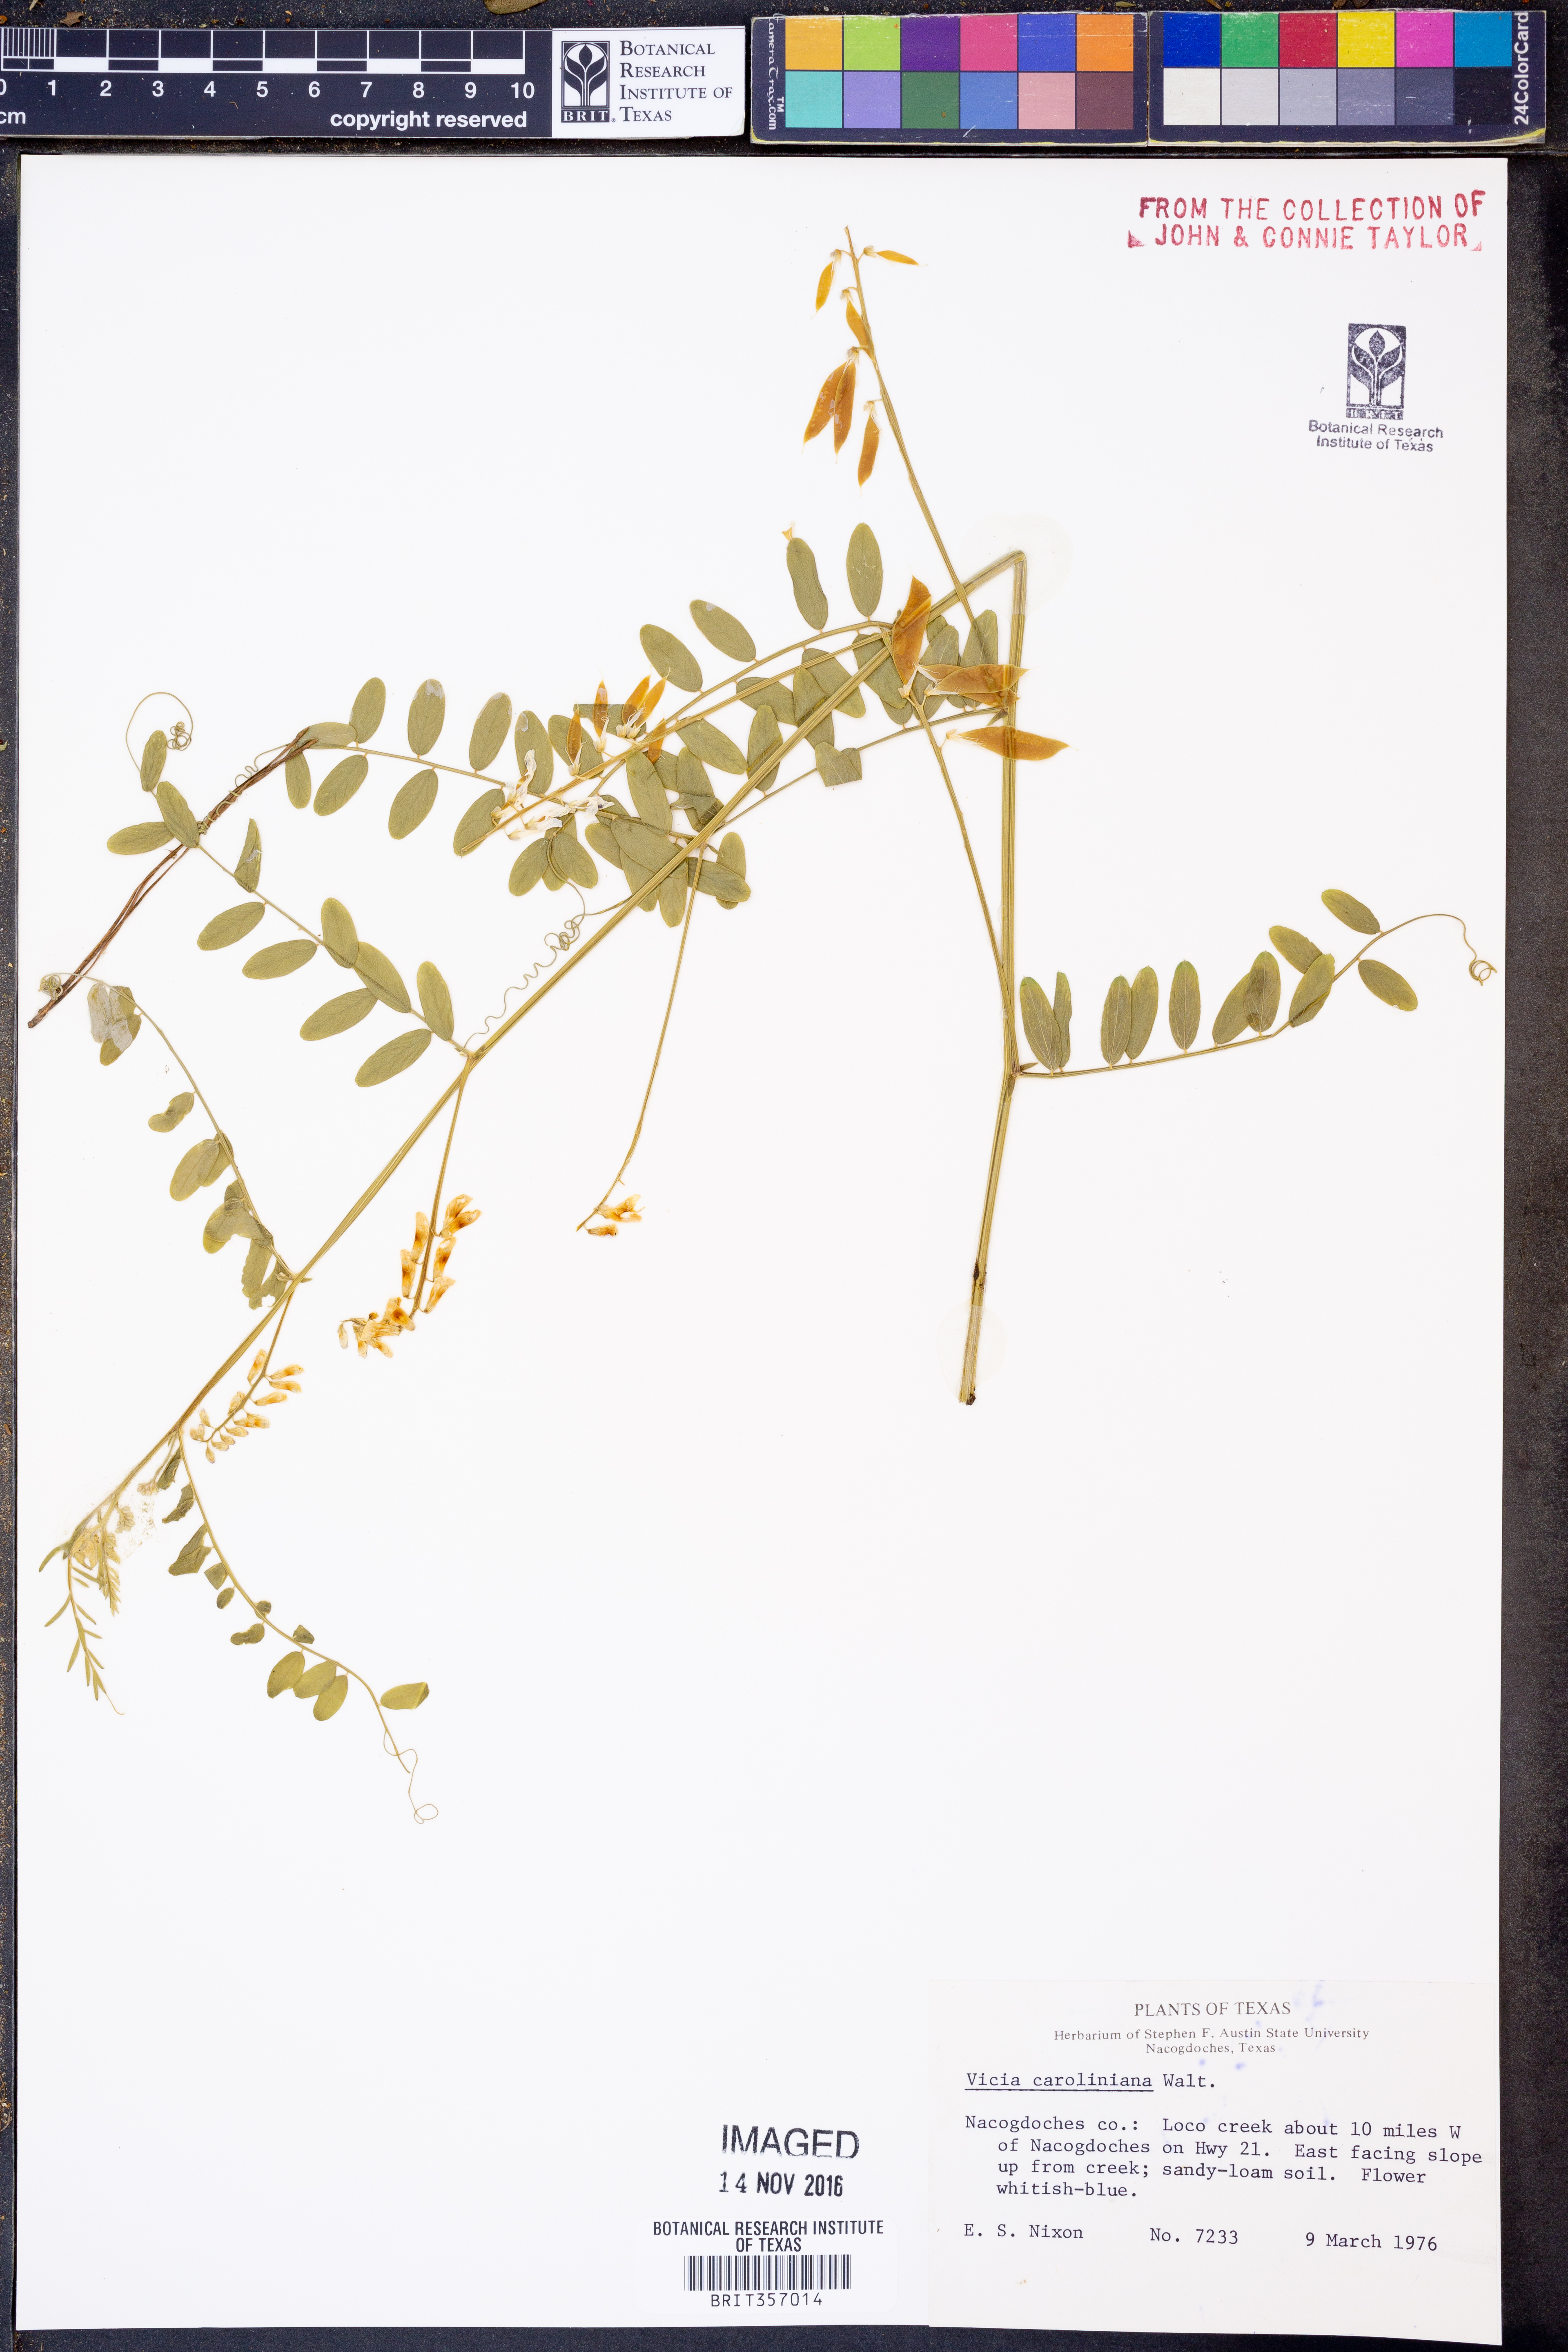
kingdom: Plantae
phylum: Tracheophyta
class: Magnoliopsida
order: Fabales
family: Fabaceae
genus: Vicia
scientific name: Vicia caroliniana
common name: Carolina vetch
